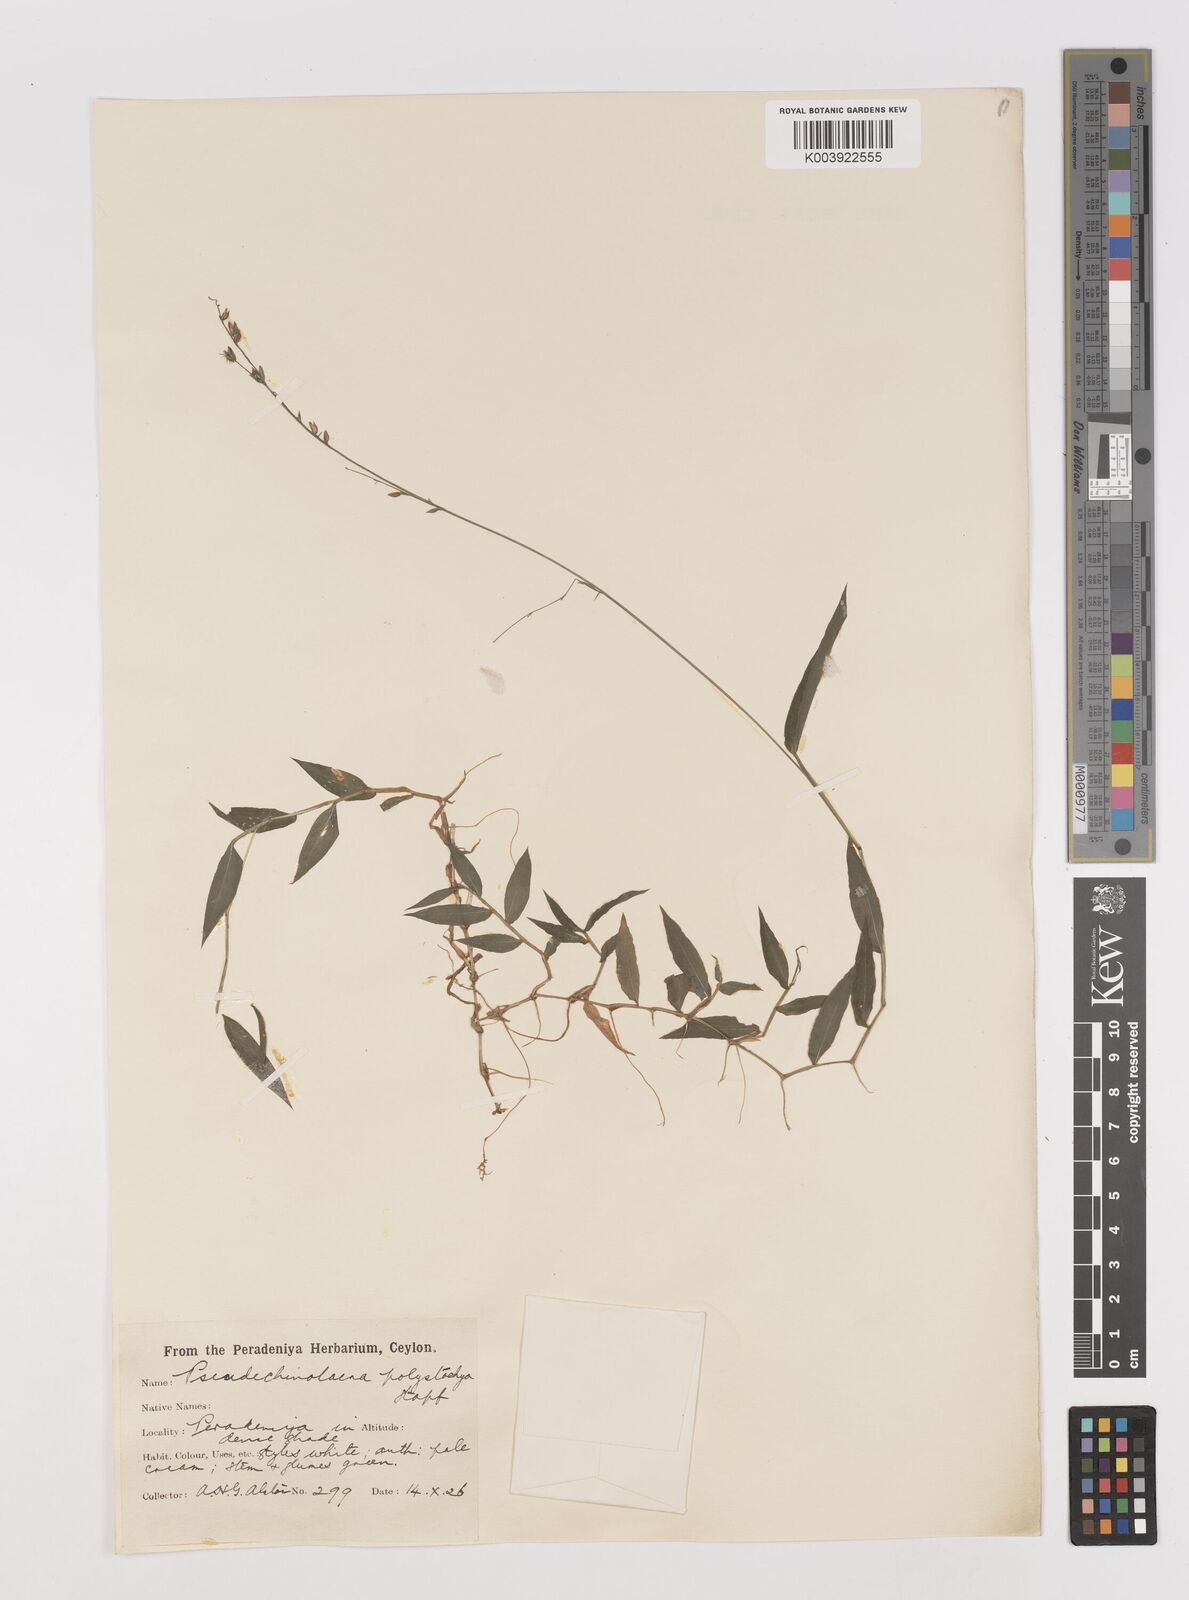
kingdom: Plantae
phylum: Tracheophyta
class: Liliopsida
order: Poales
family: Poaceae
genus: Pseudechinolaena
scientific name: Pseudechinolaena polystachya
